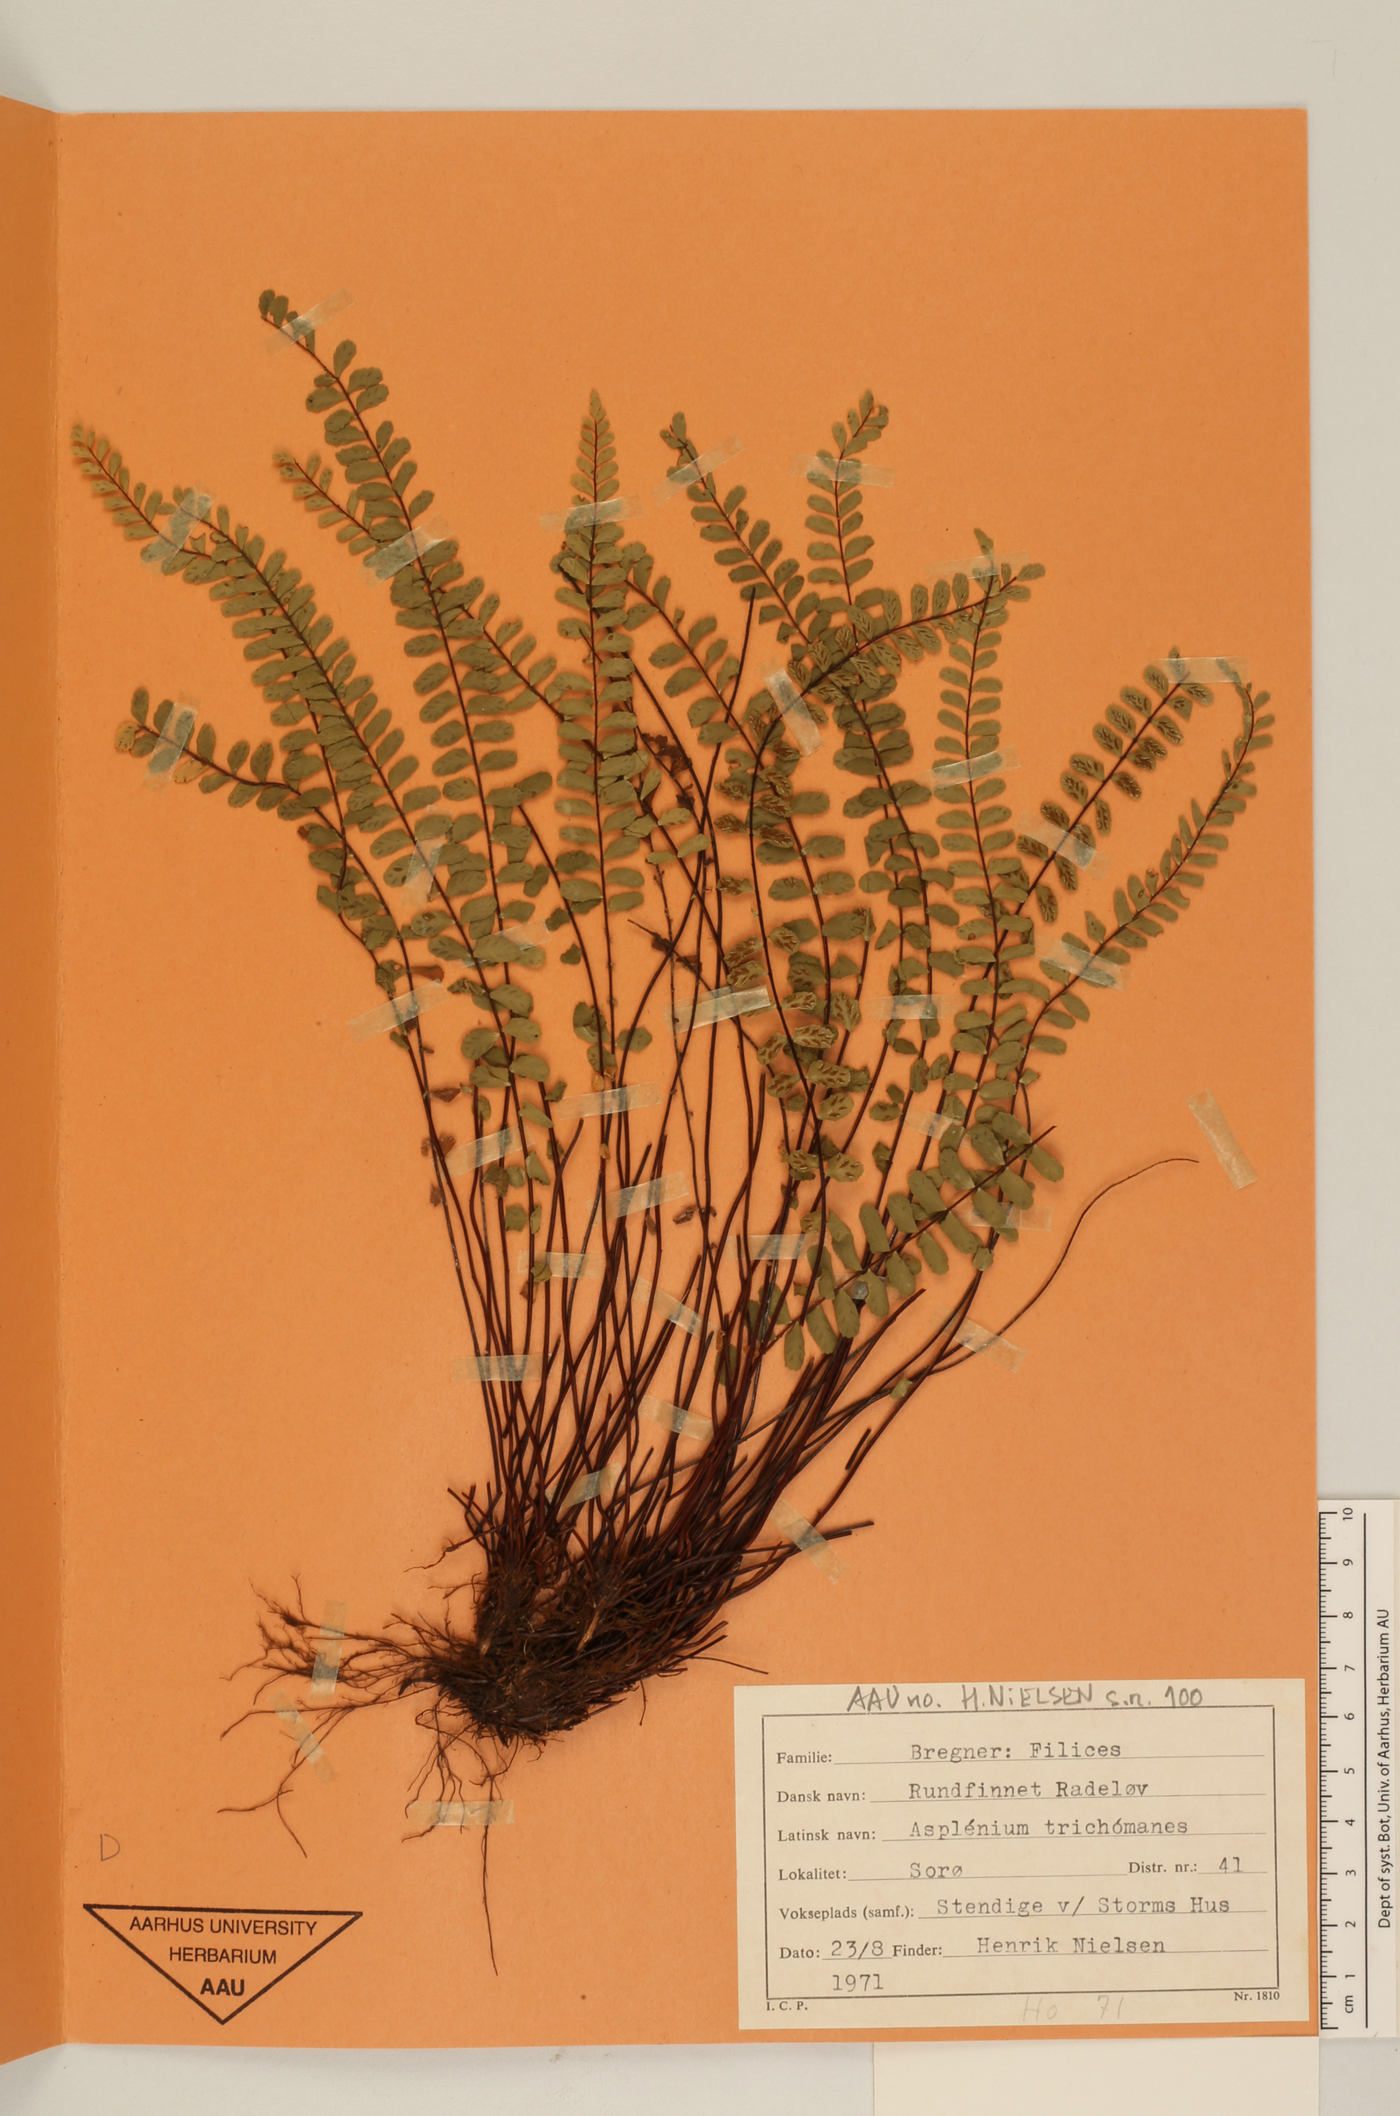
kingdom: Plantae
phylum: Tracheophyta
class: Polypodiopsida
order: Polypodiales
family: Aspleniaceae
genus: Asplenium
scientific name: Asplenium trichomanes
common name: Maidenhair spleenwort
